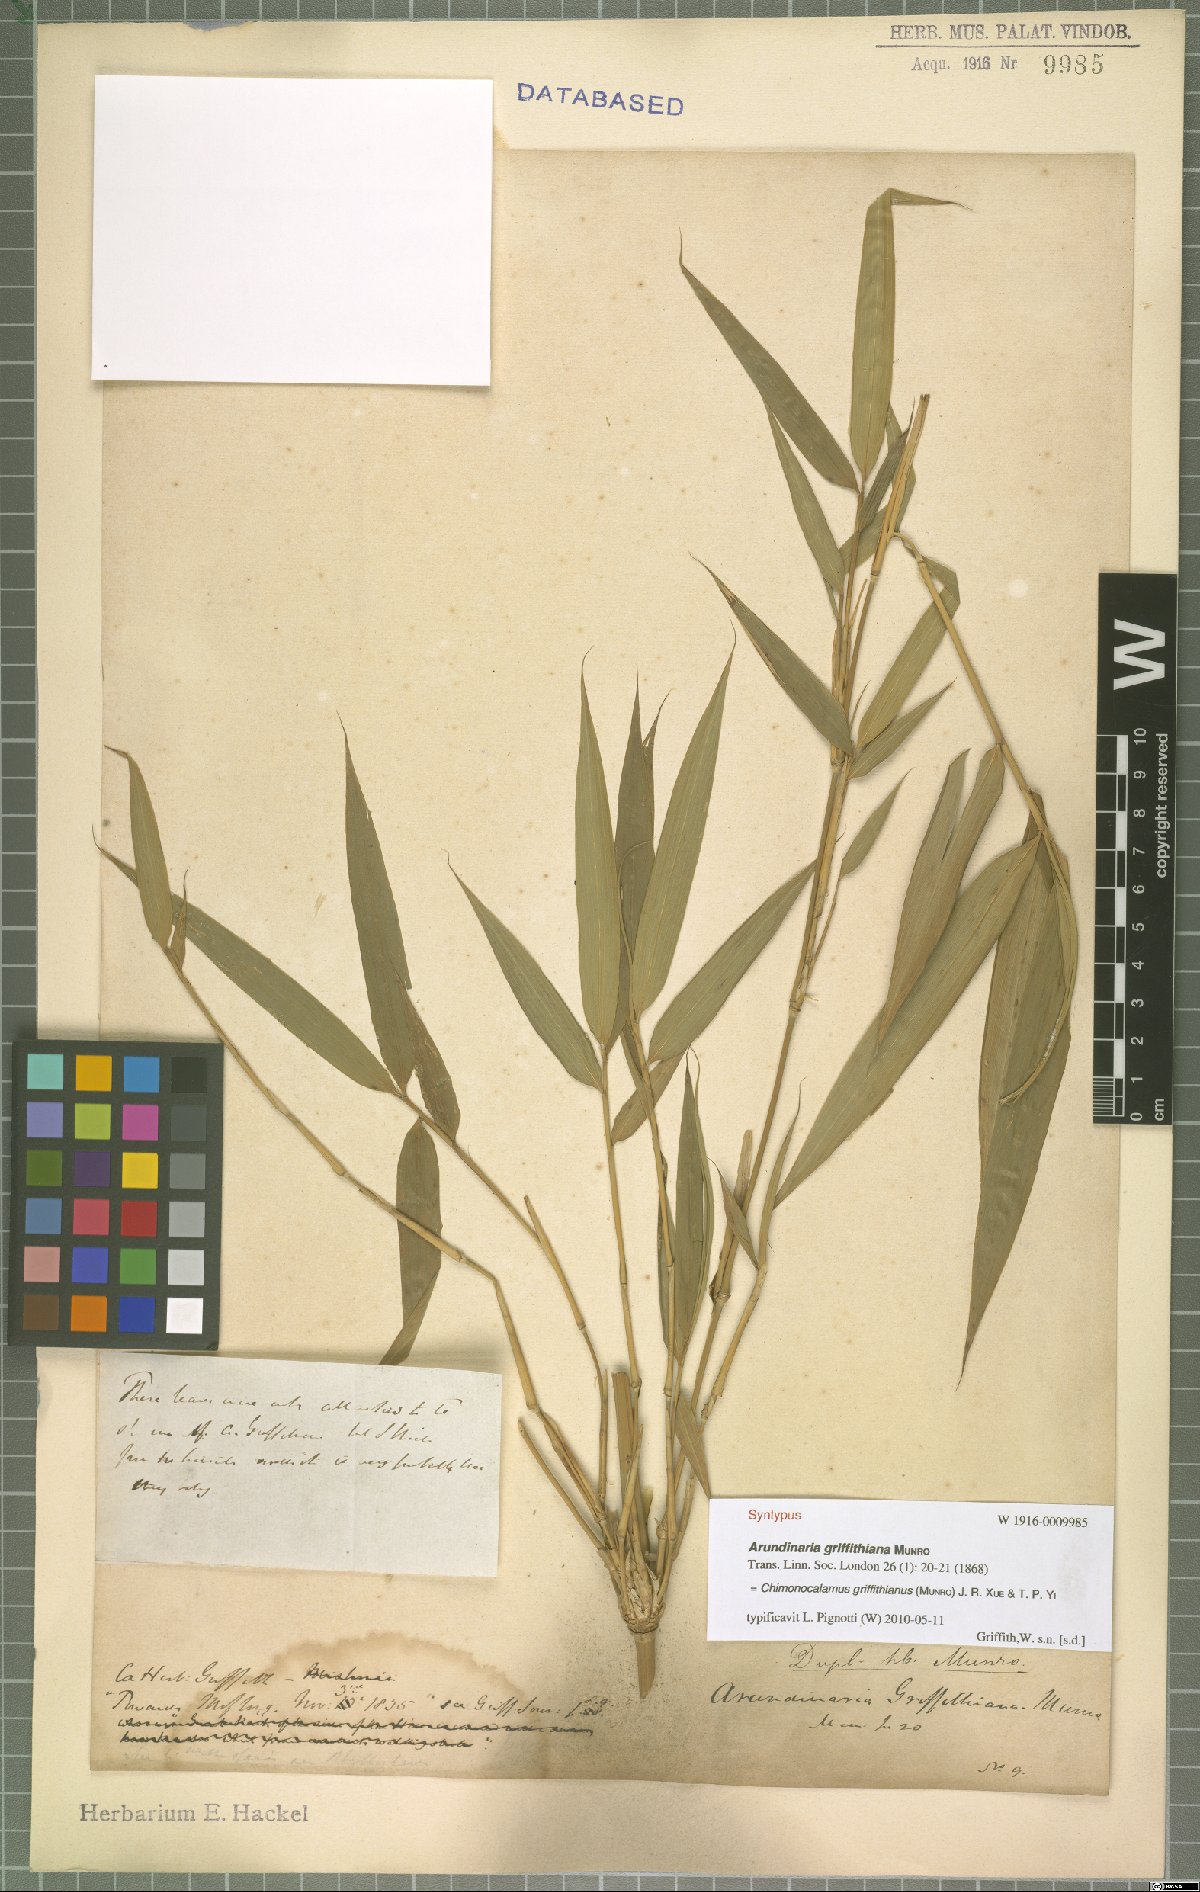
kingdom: Plantae
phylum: Tracheophyta
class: Liliopsida
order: Poales
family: Poaceae
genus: Chimonocalamus
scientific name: Chimonocalamus griffithianus
